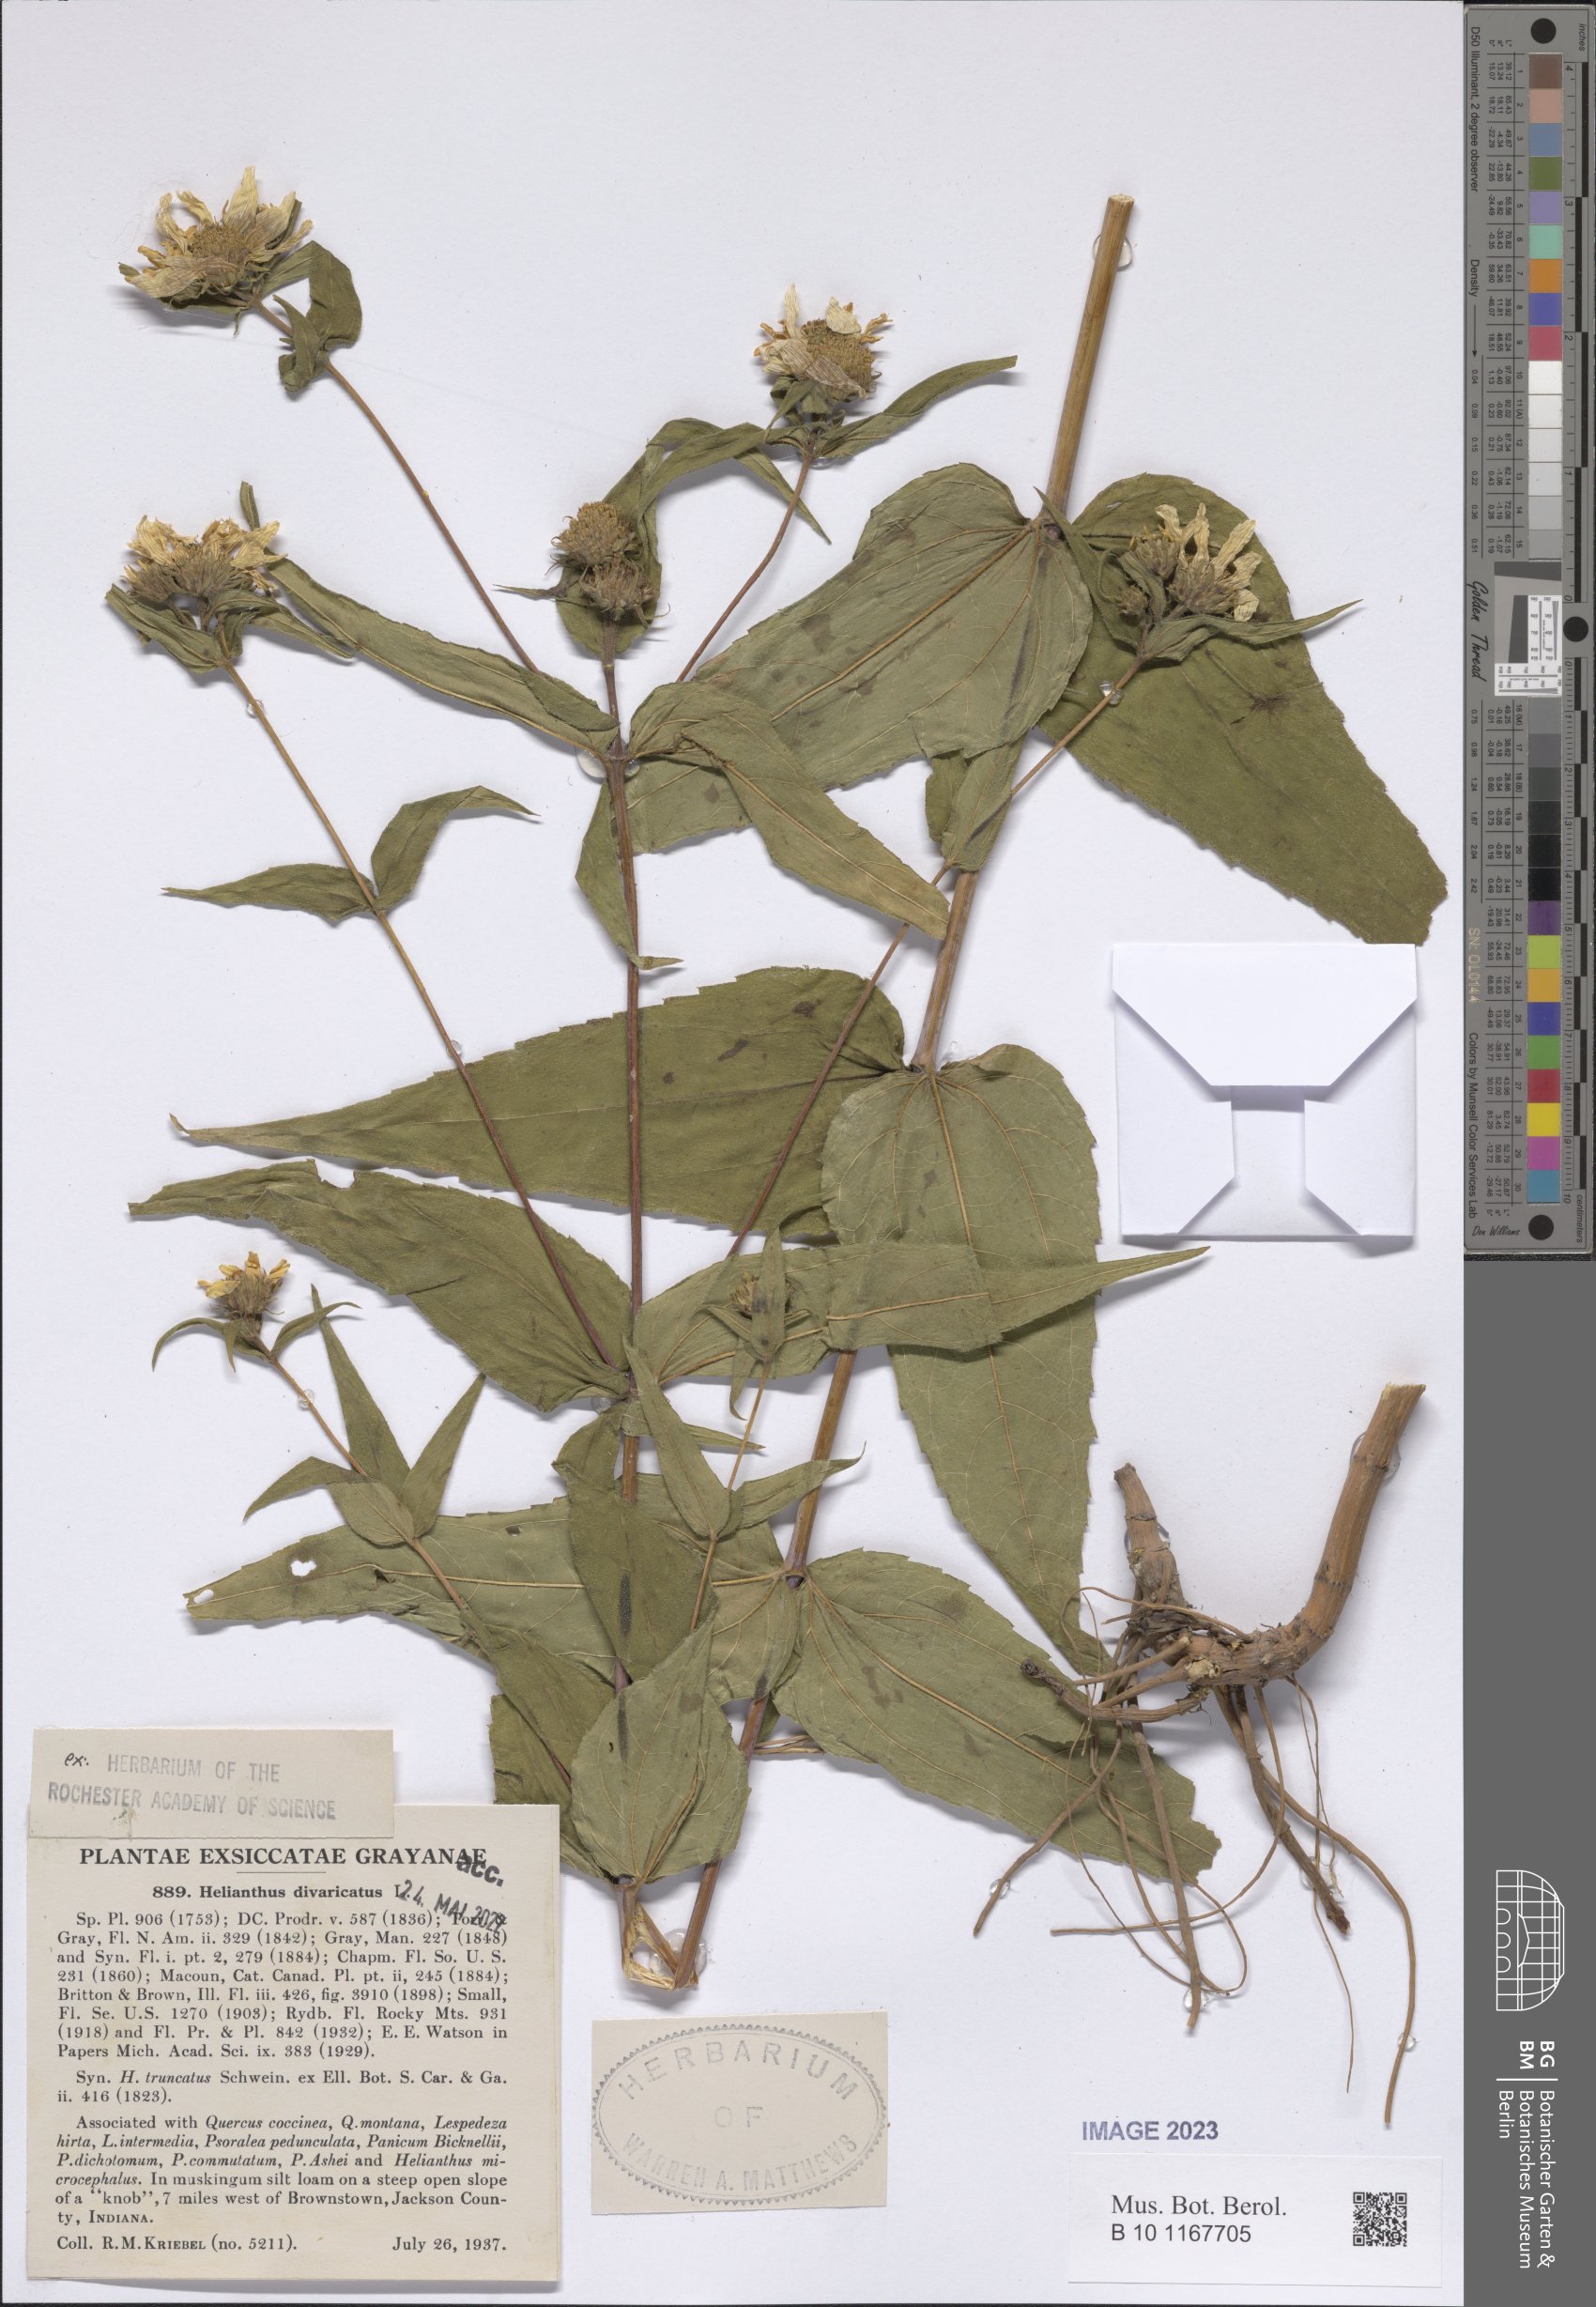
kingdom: Plantae
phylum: Tracheophyta
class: Magnoliopsida
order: Asterales
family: Asteraceae
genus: Helianthus
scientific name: Helianthus divaricatus
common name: Divergent sunflower
